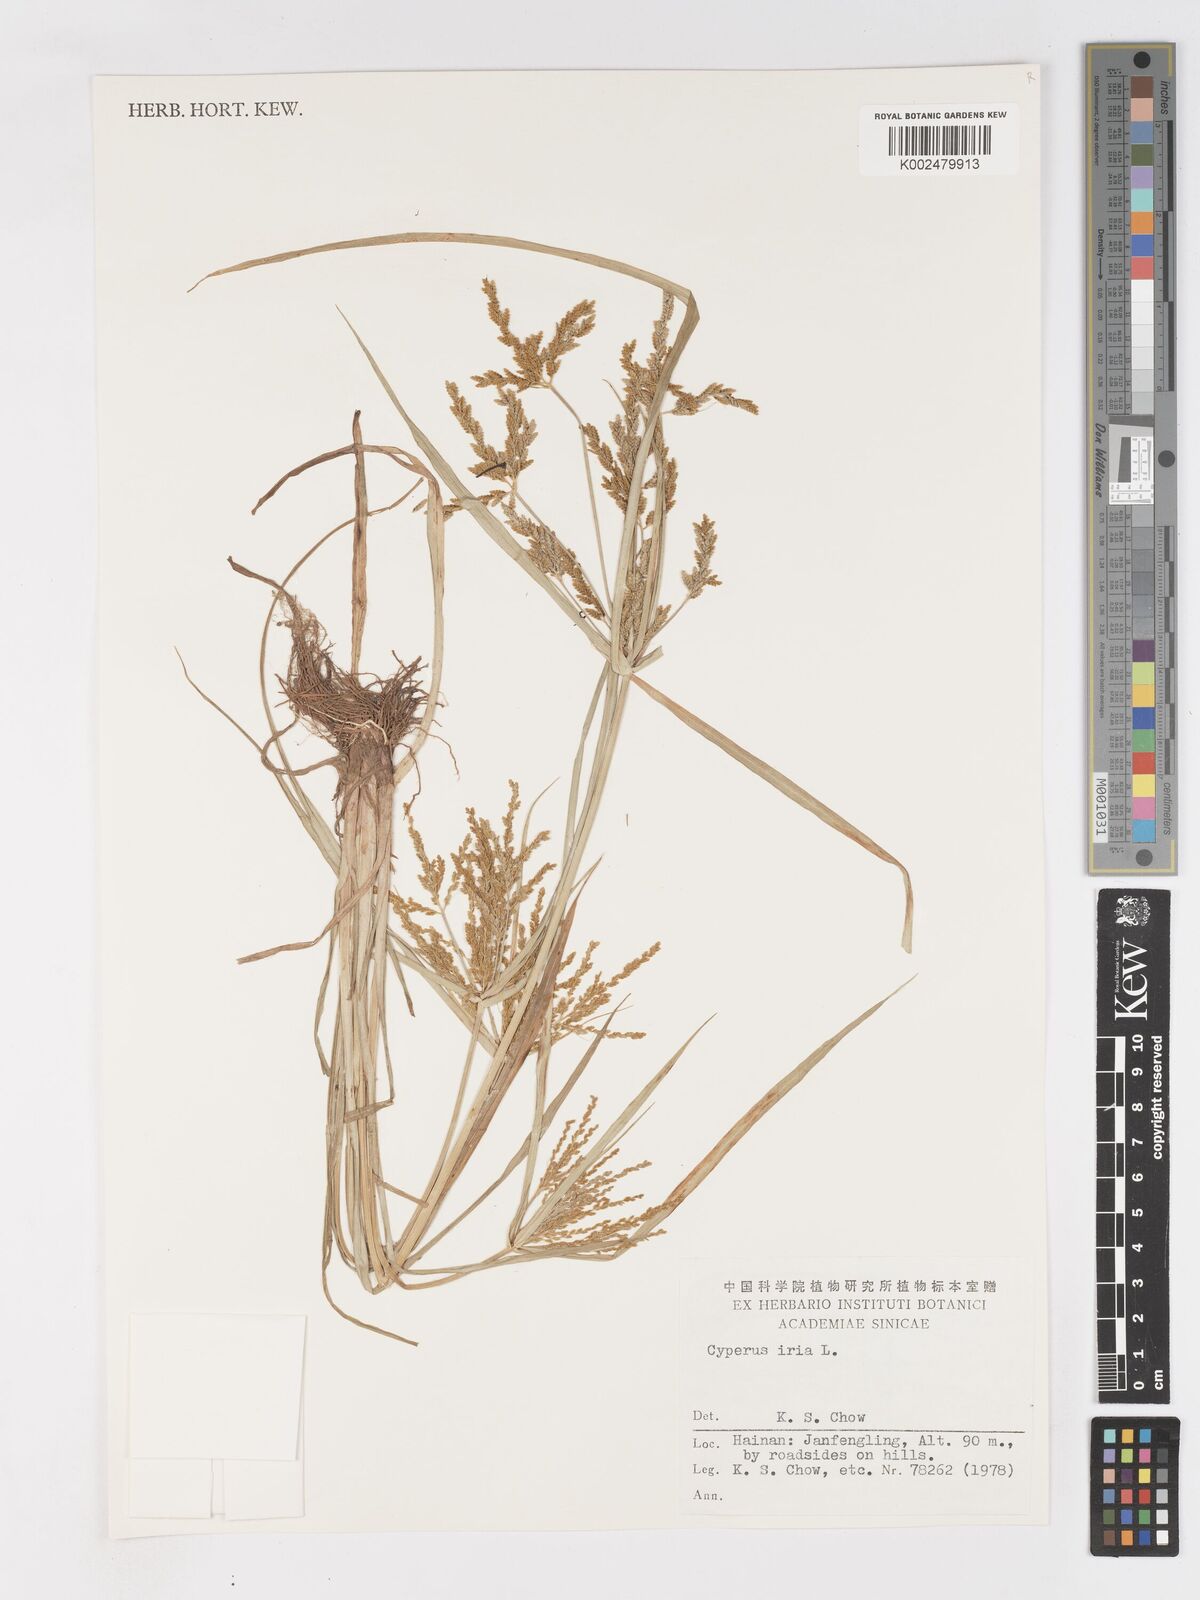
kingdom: Plantae
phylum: Tracheophyta
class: Liliopsida
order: Poales
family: Cyperaceae
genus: Cyperus
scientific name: Cyperus iria
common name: Ricefield flatsedge
